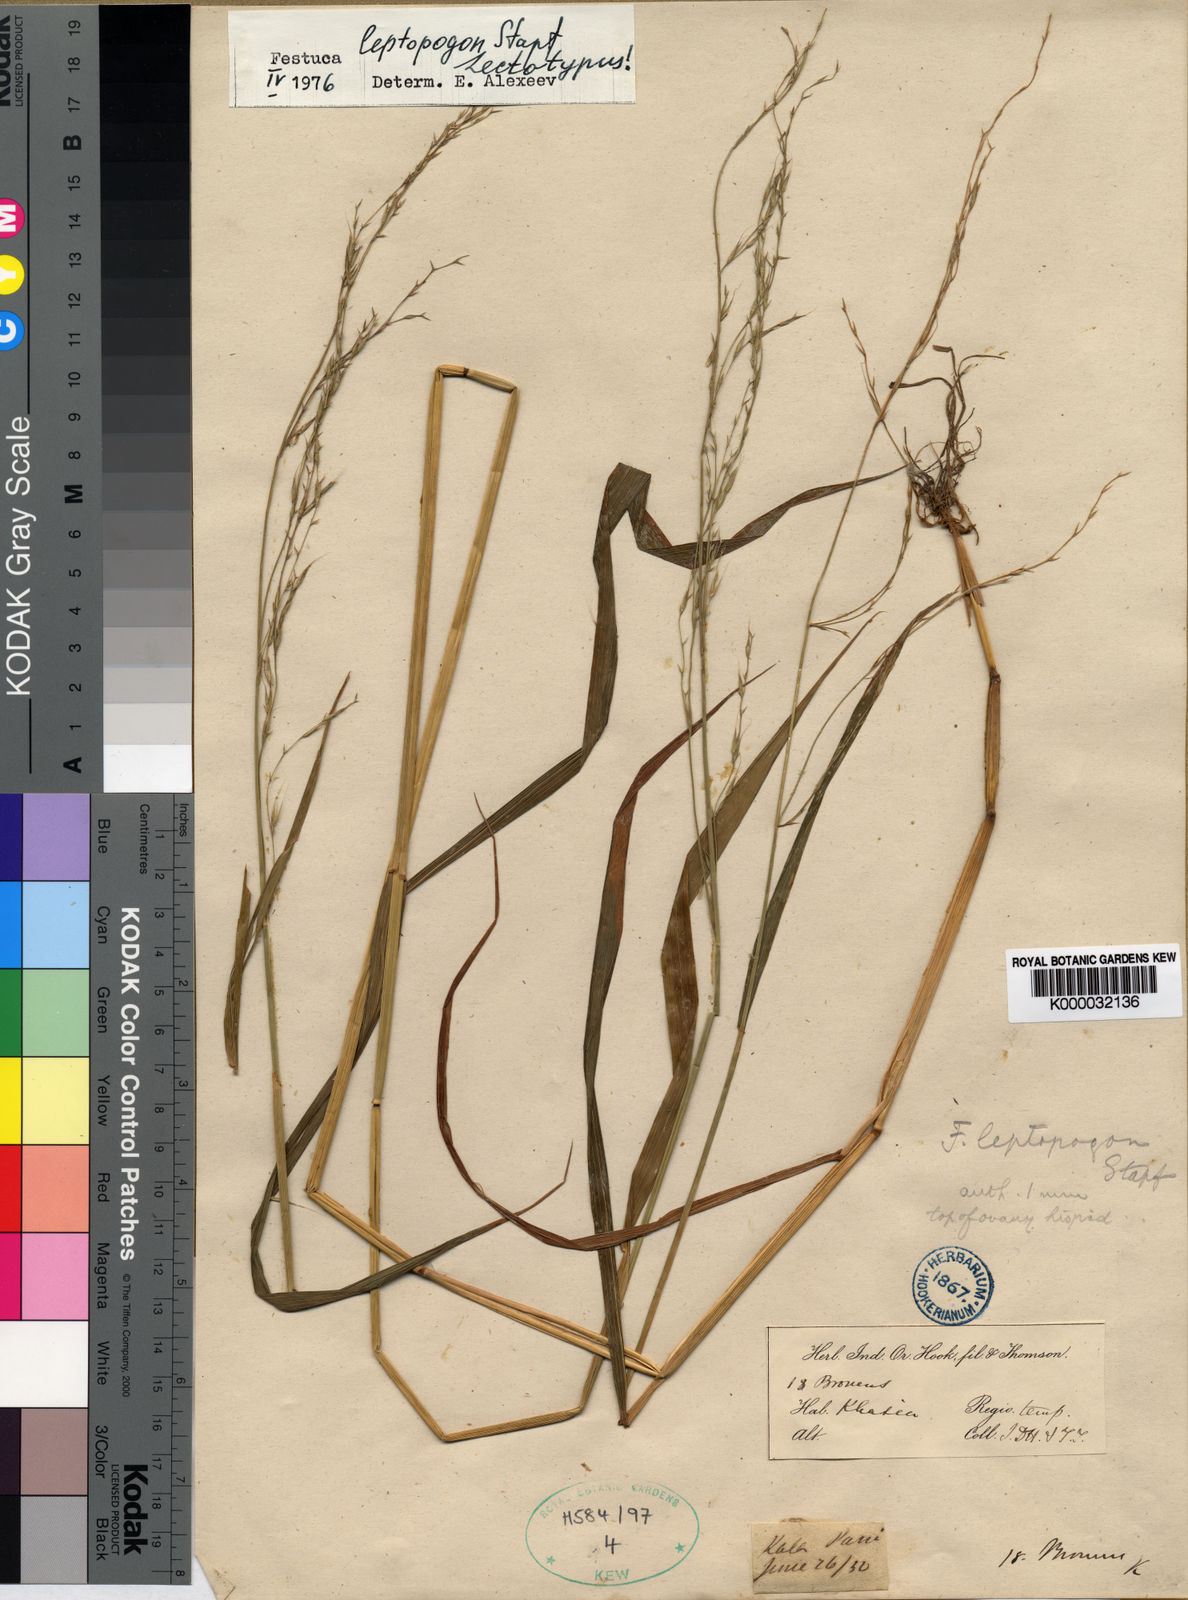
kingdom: Plantae
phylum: Tracheophyta
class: Liliopsida
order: Poales
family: Poaceae
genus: Festuca
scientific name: Festuca leptopogon
